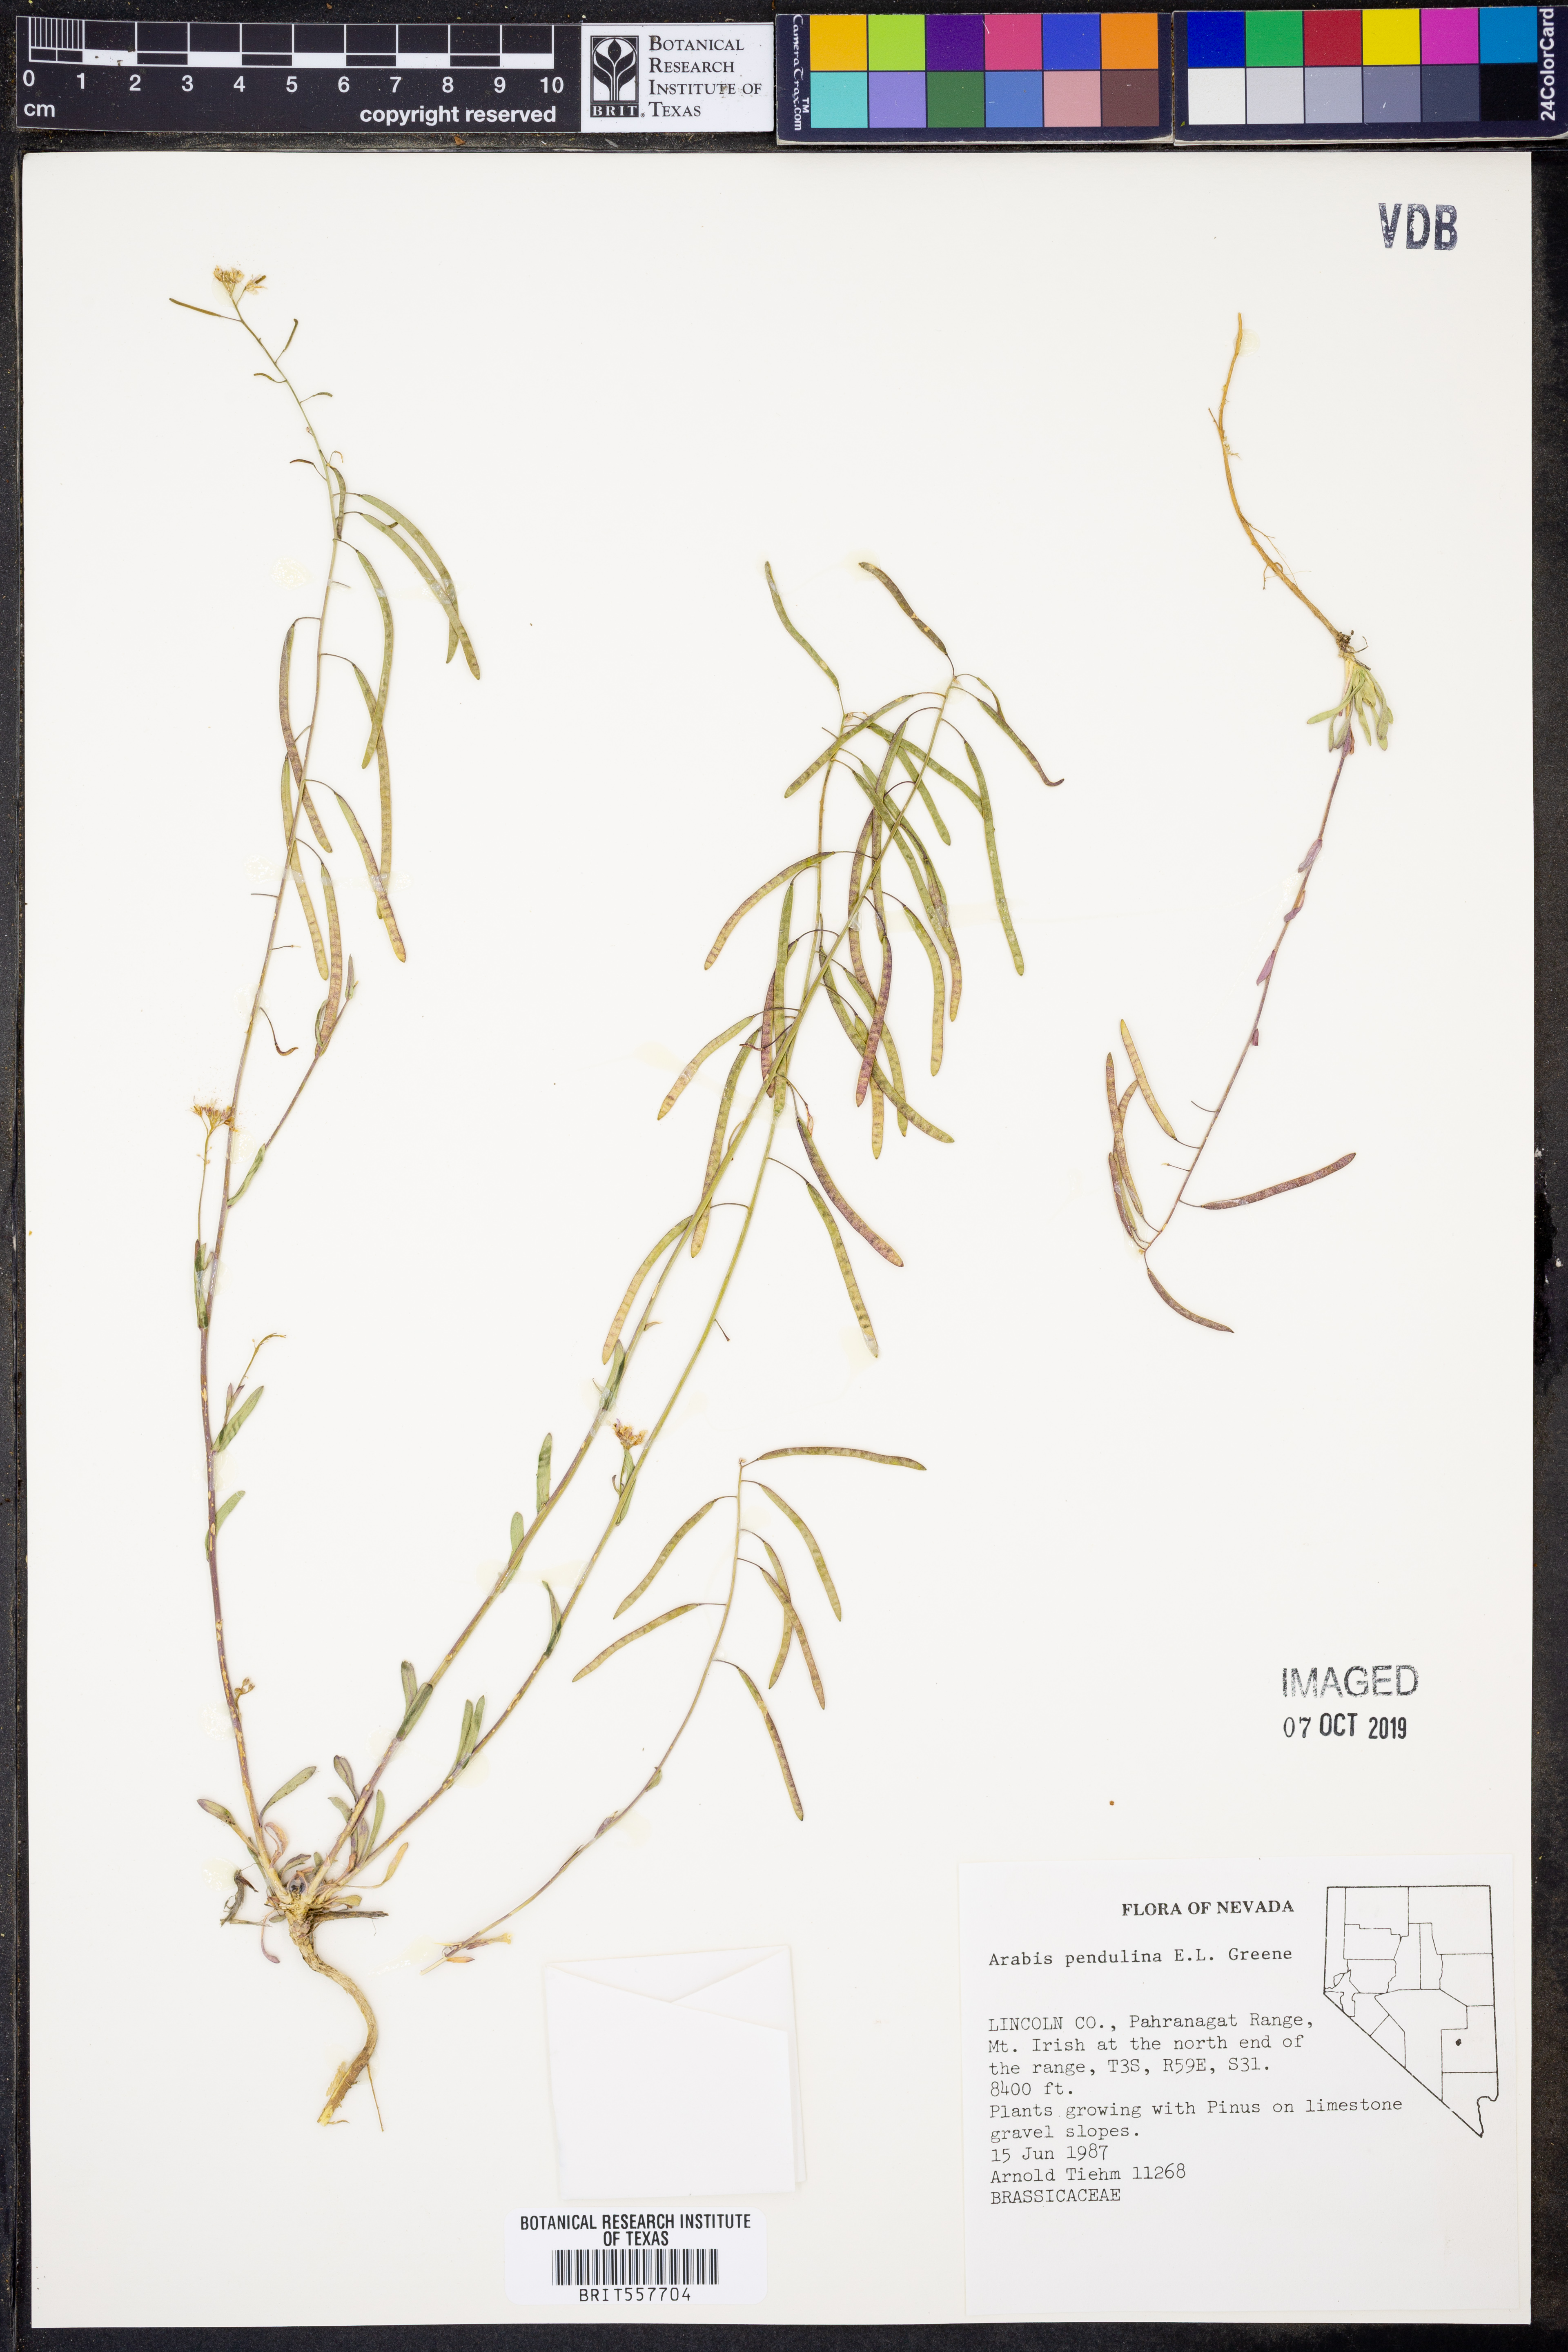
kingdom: Plantae
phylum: Tracheophyta
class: Magnoliopsida
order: Brassicales
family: Brassicaceae
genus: Boechera
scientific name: Boechera pendulina
